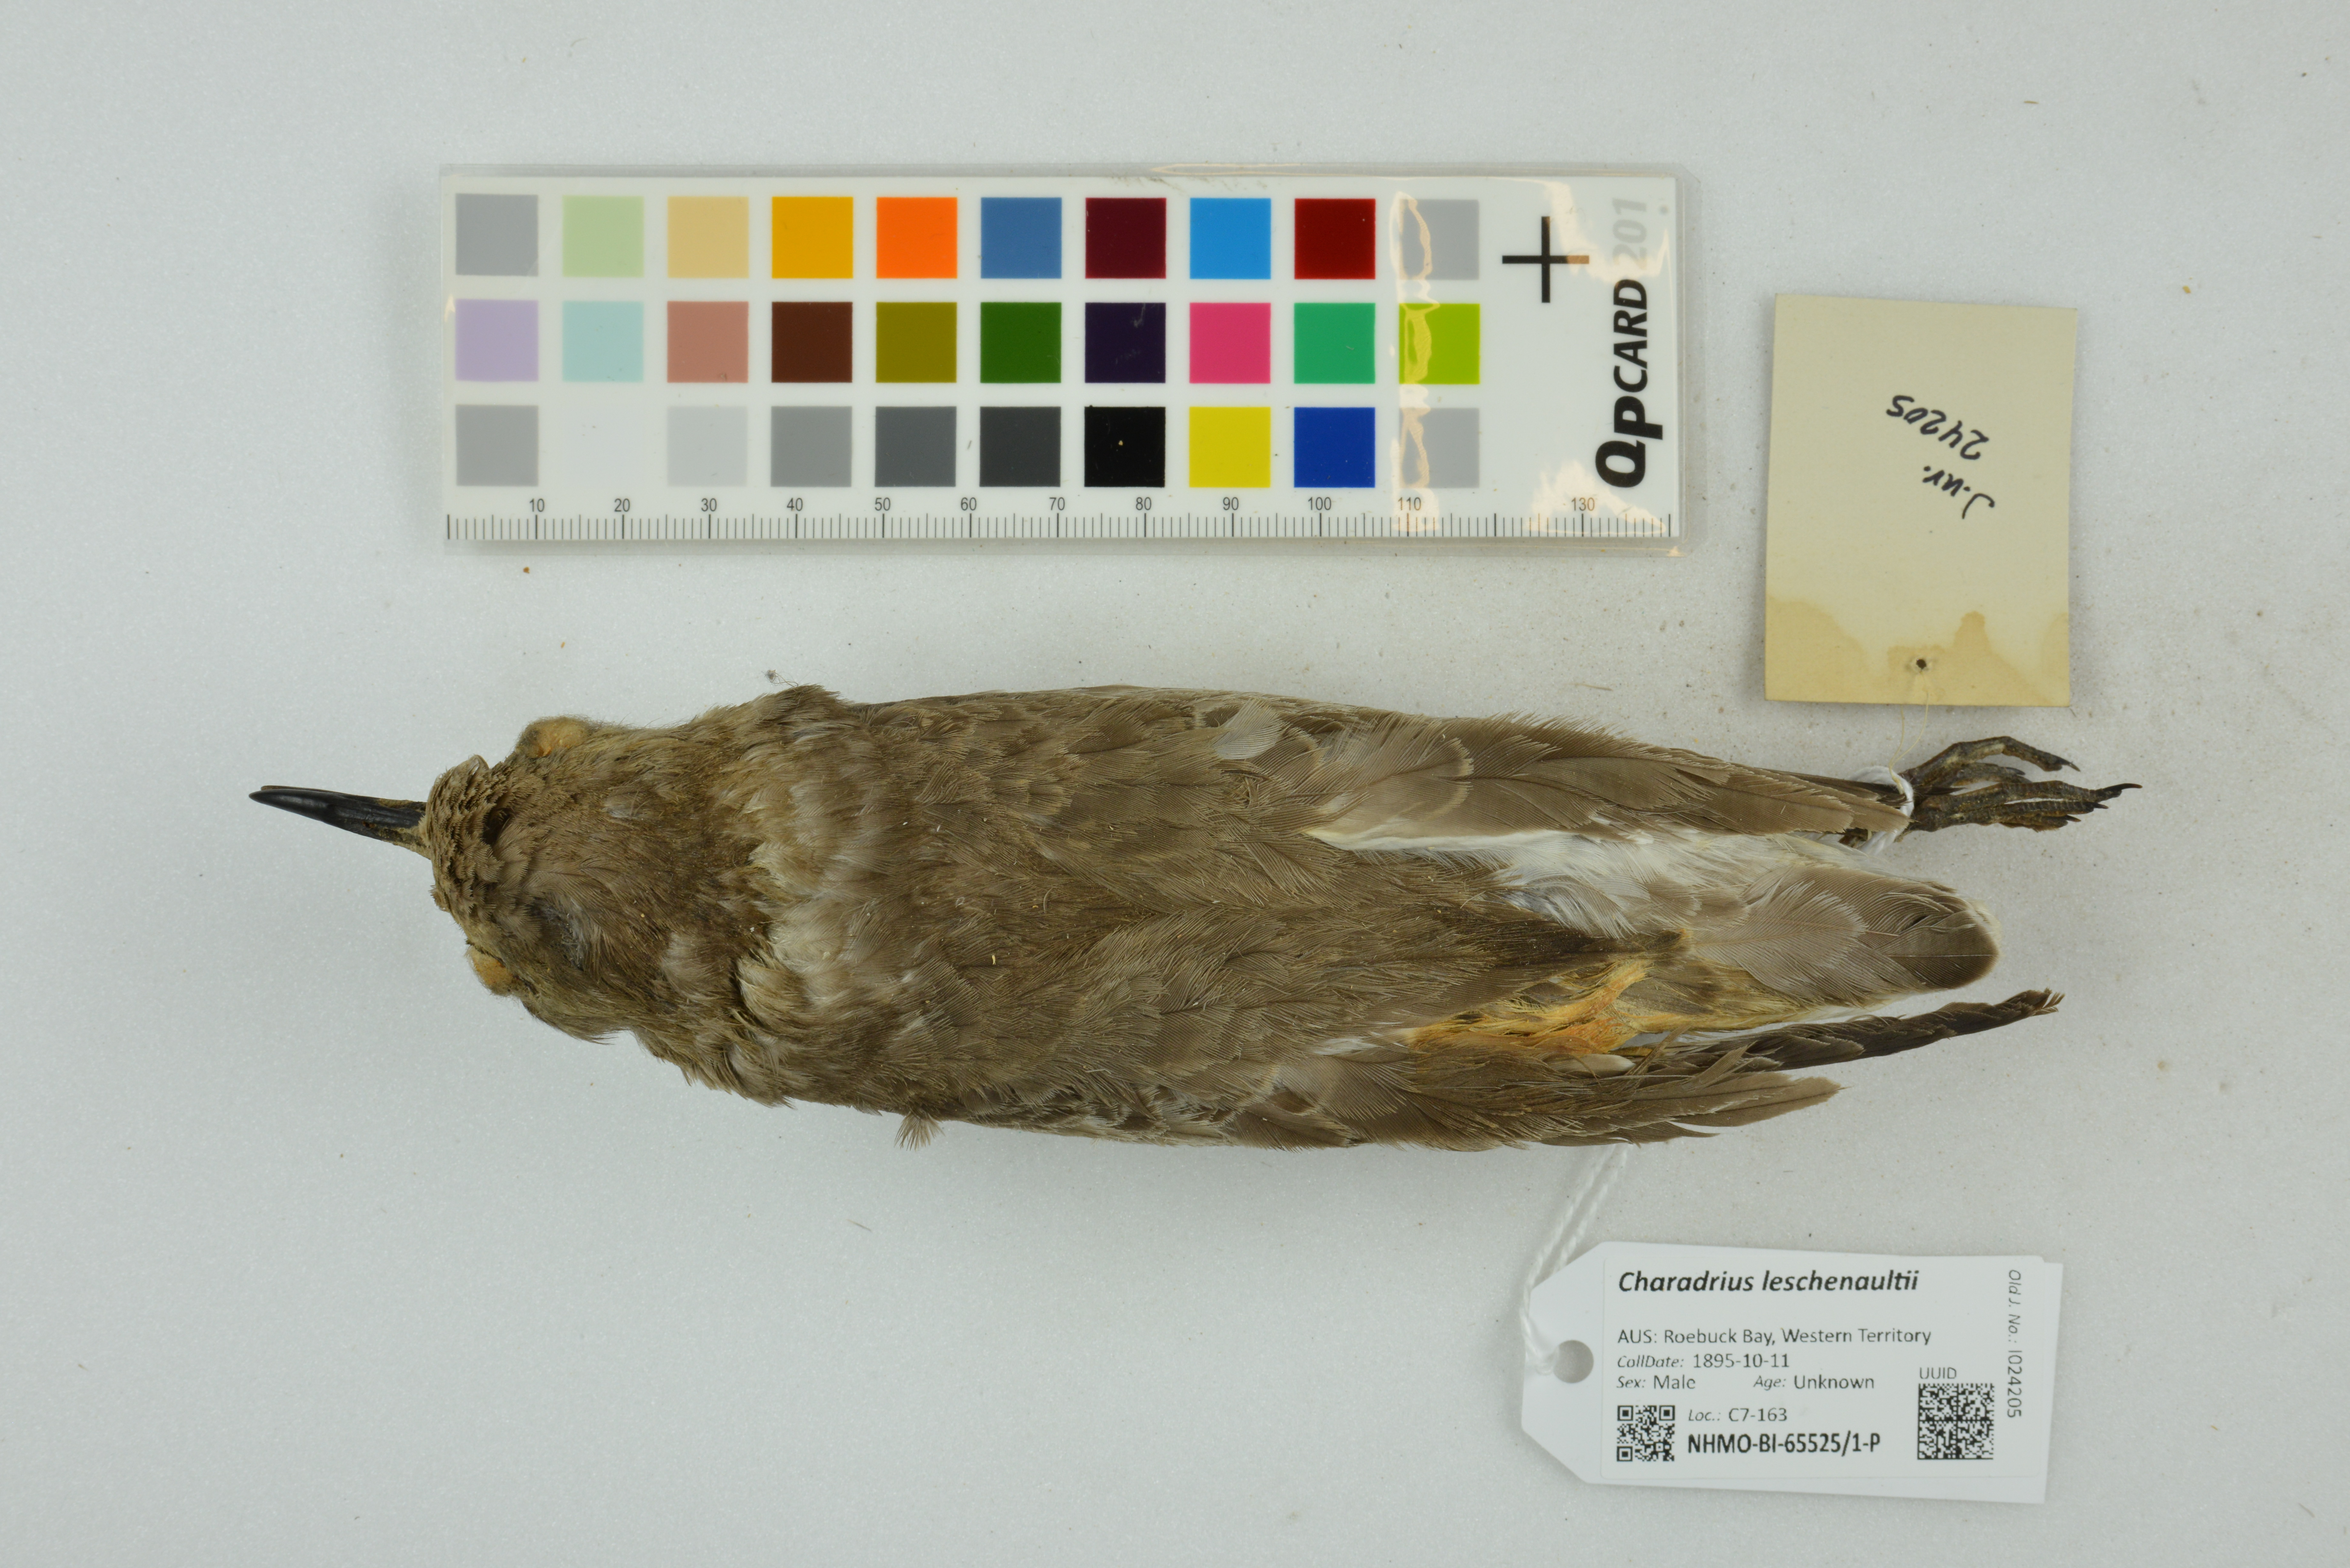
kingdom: Animalia
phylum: Chordata
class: Aves
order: Charadriiformes
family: Charadriidae
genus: Charadrius
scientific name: Charadrius leschenaultii
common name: Greater sand plover
